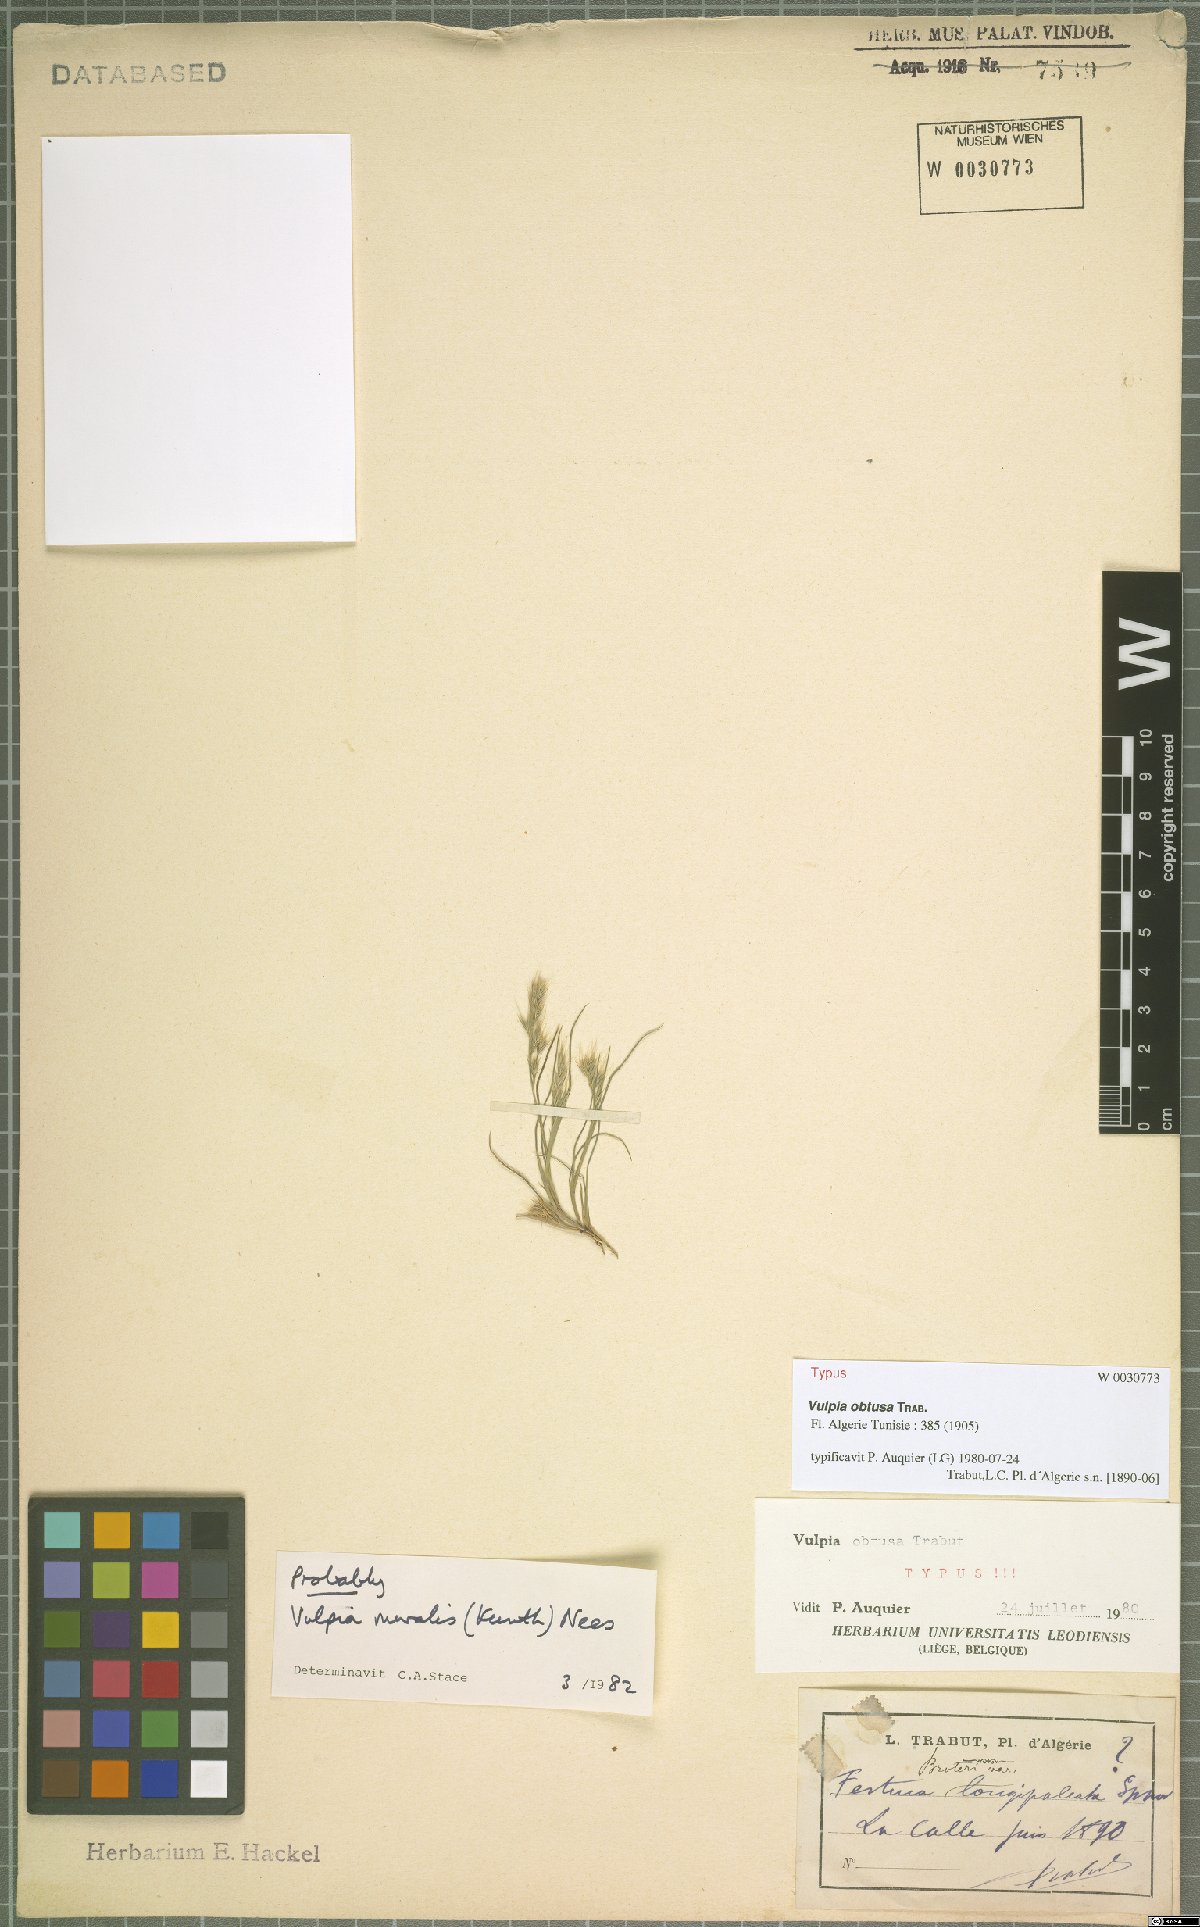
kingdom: Plantae
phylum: Tracheophyta
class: Liliopsida
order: Poales
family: Poaceae
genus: Festuca
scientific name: Festuca geniculata
